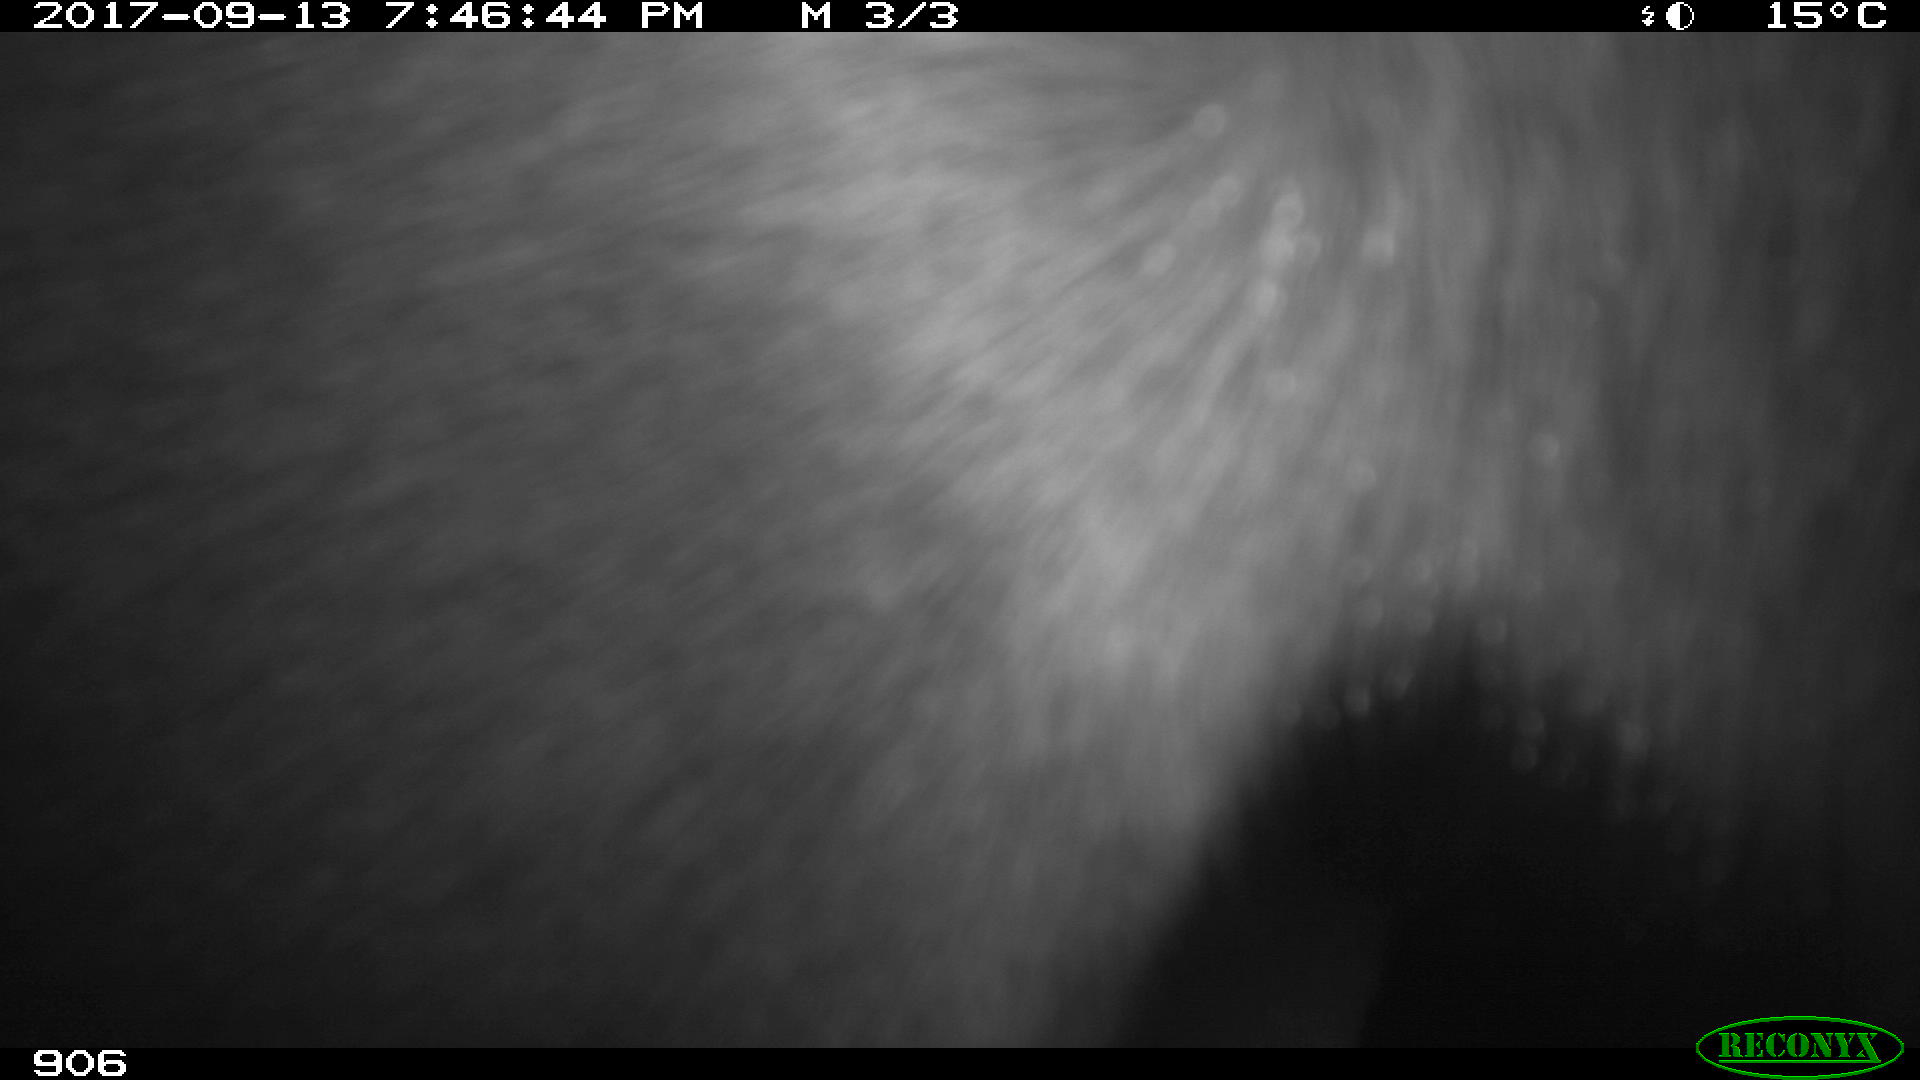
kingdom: Animalia
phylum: Chordata
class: Mammalia
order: Perissodactyla
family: Equidae
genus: Equus
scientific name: Equus caballus
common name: Horse
